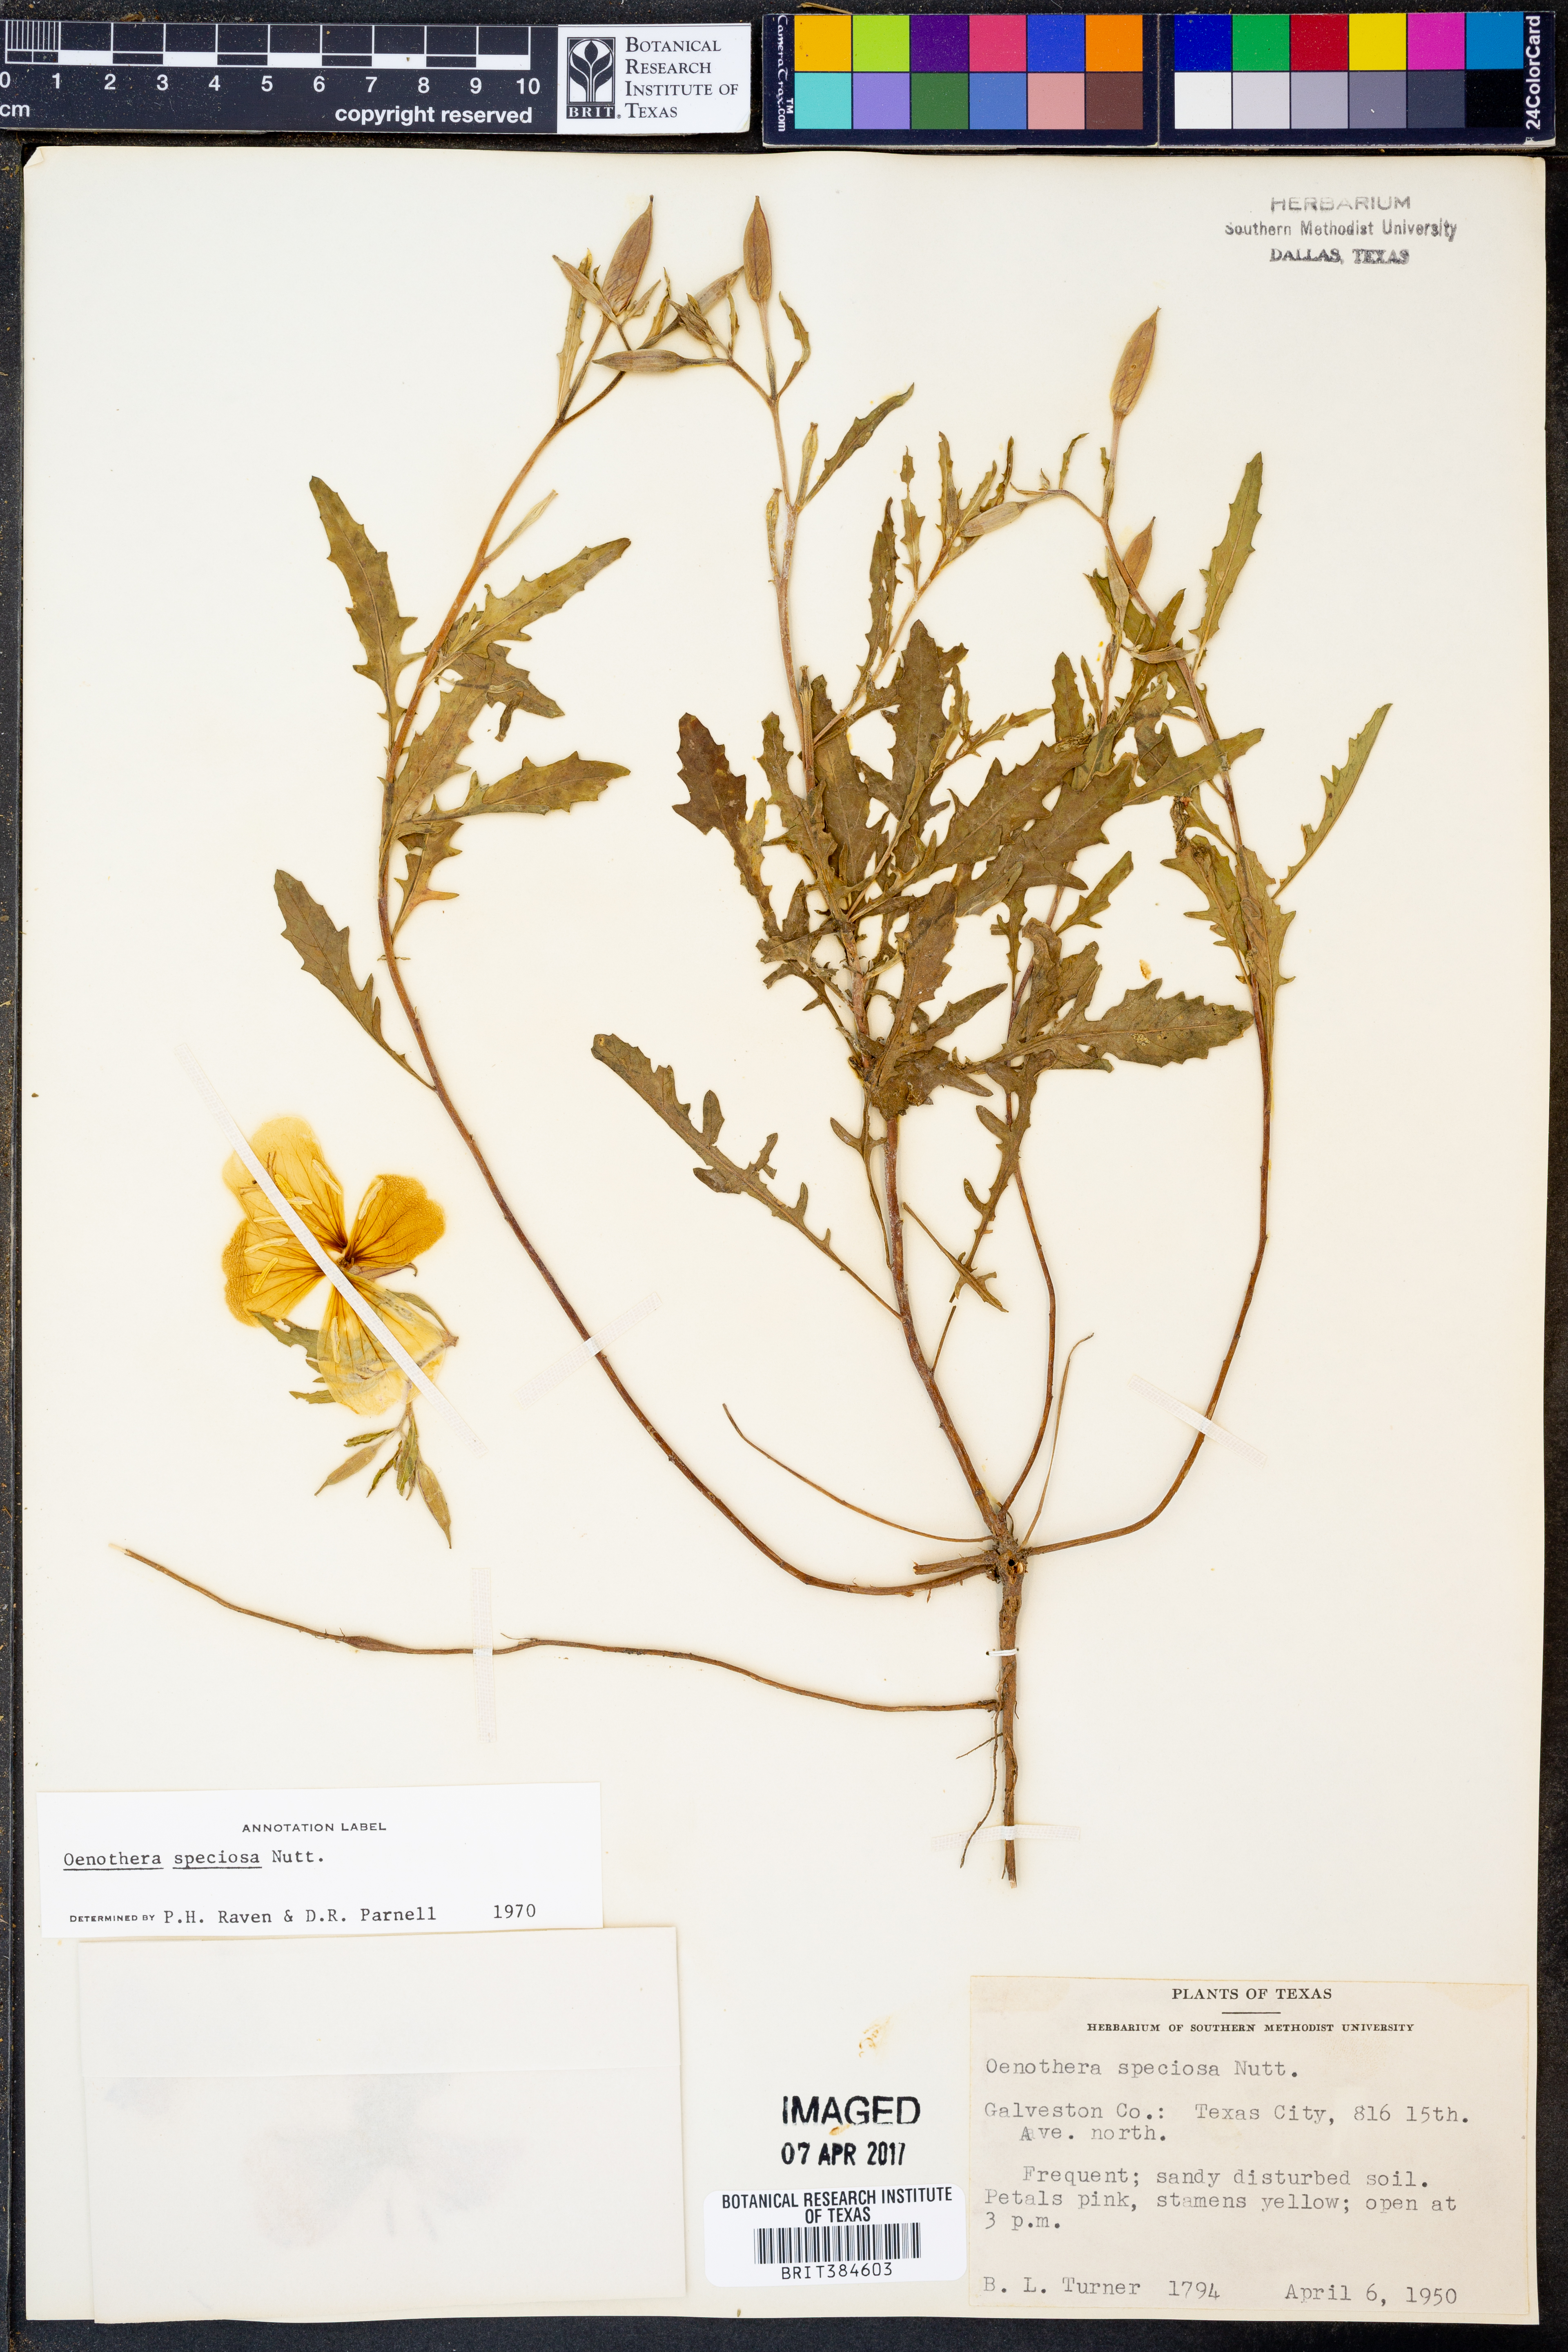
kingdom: Plantae
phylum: Tracheophyta
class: Magnoliopsida
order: Myrtales
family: Onagraceae
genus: Oenothera
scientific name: Oenothera speciosa
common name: White evening-primrose
